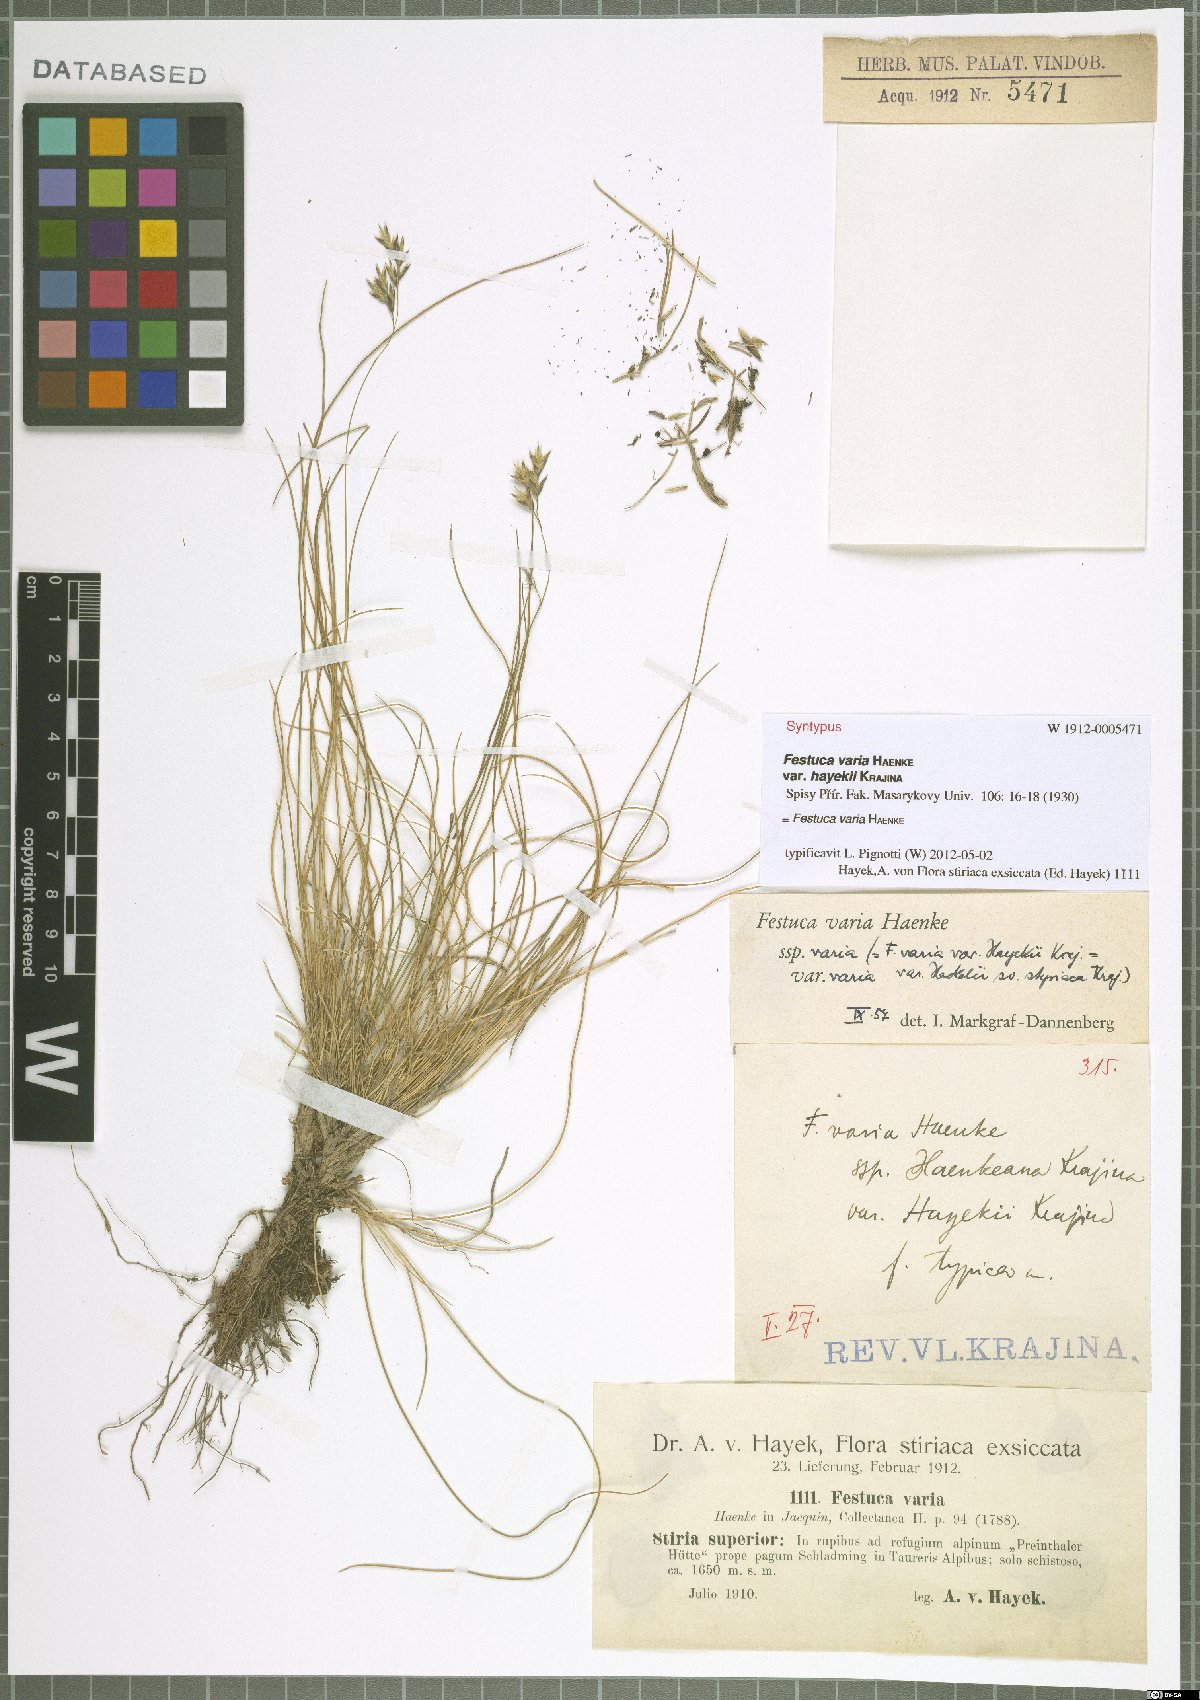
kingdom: Plantae
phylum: Tracheophyta
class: Liliopsida
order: Poales
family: Poaceae
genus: Festuca
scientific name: Festuca varia
